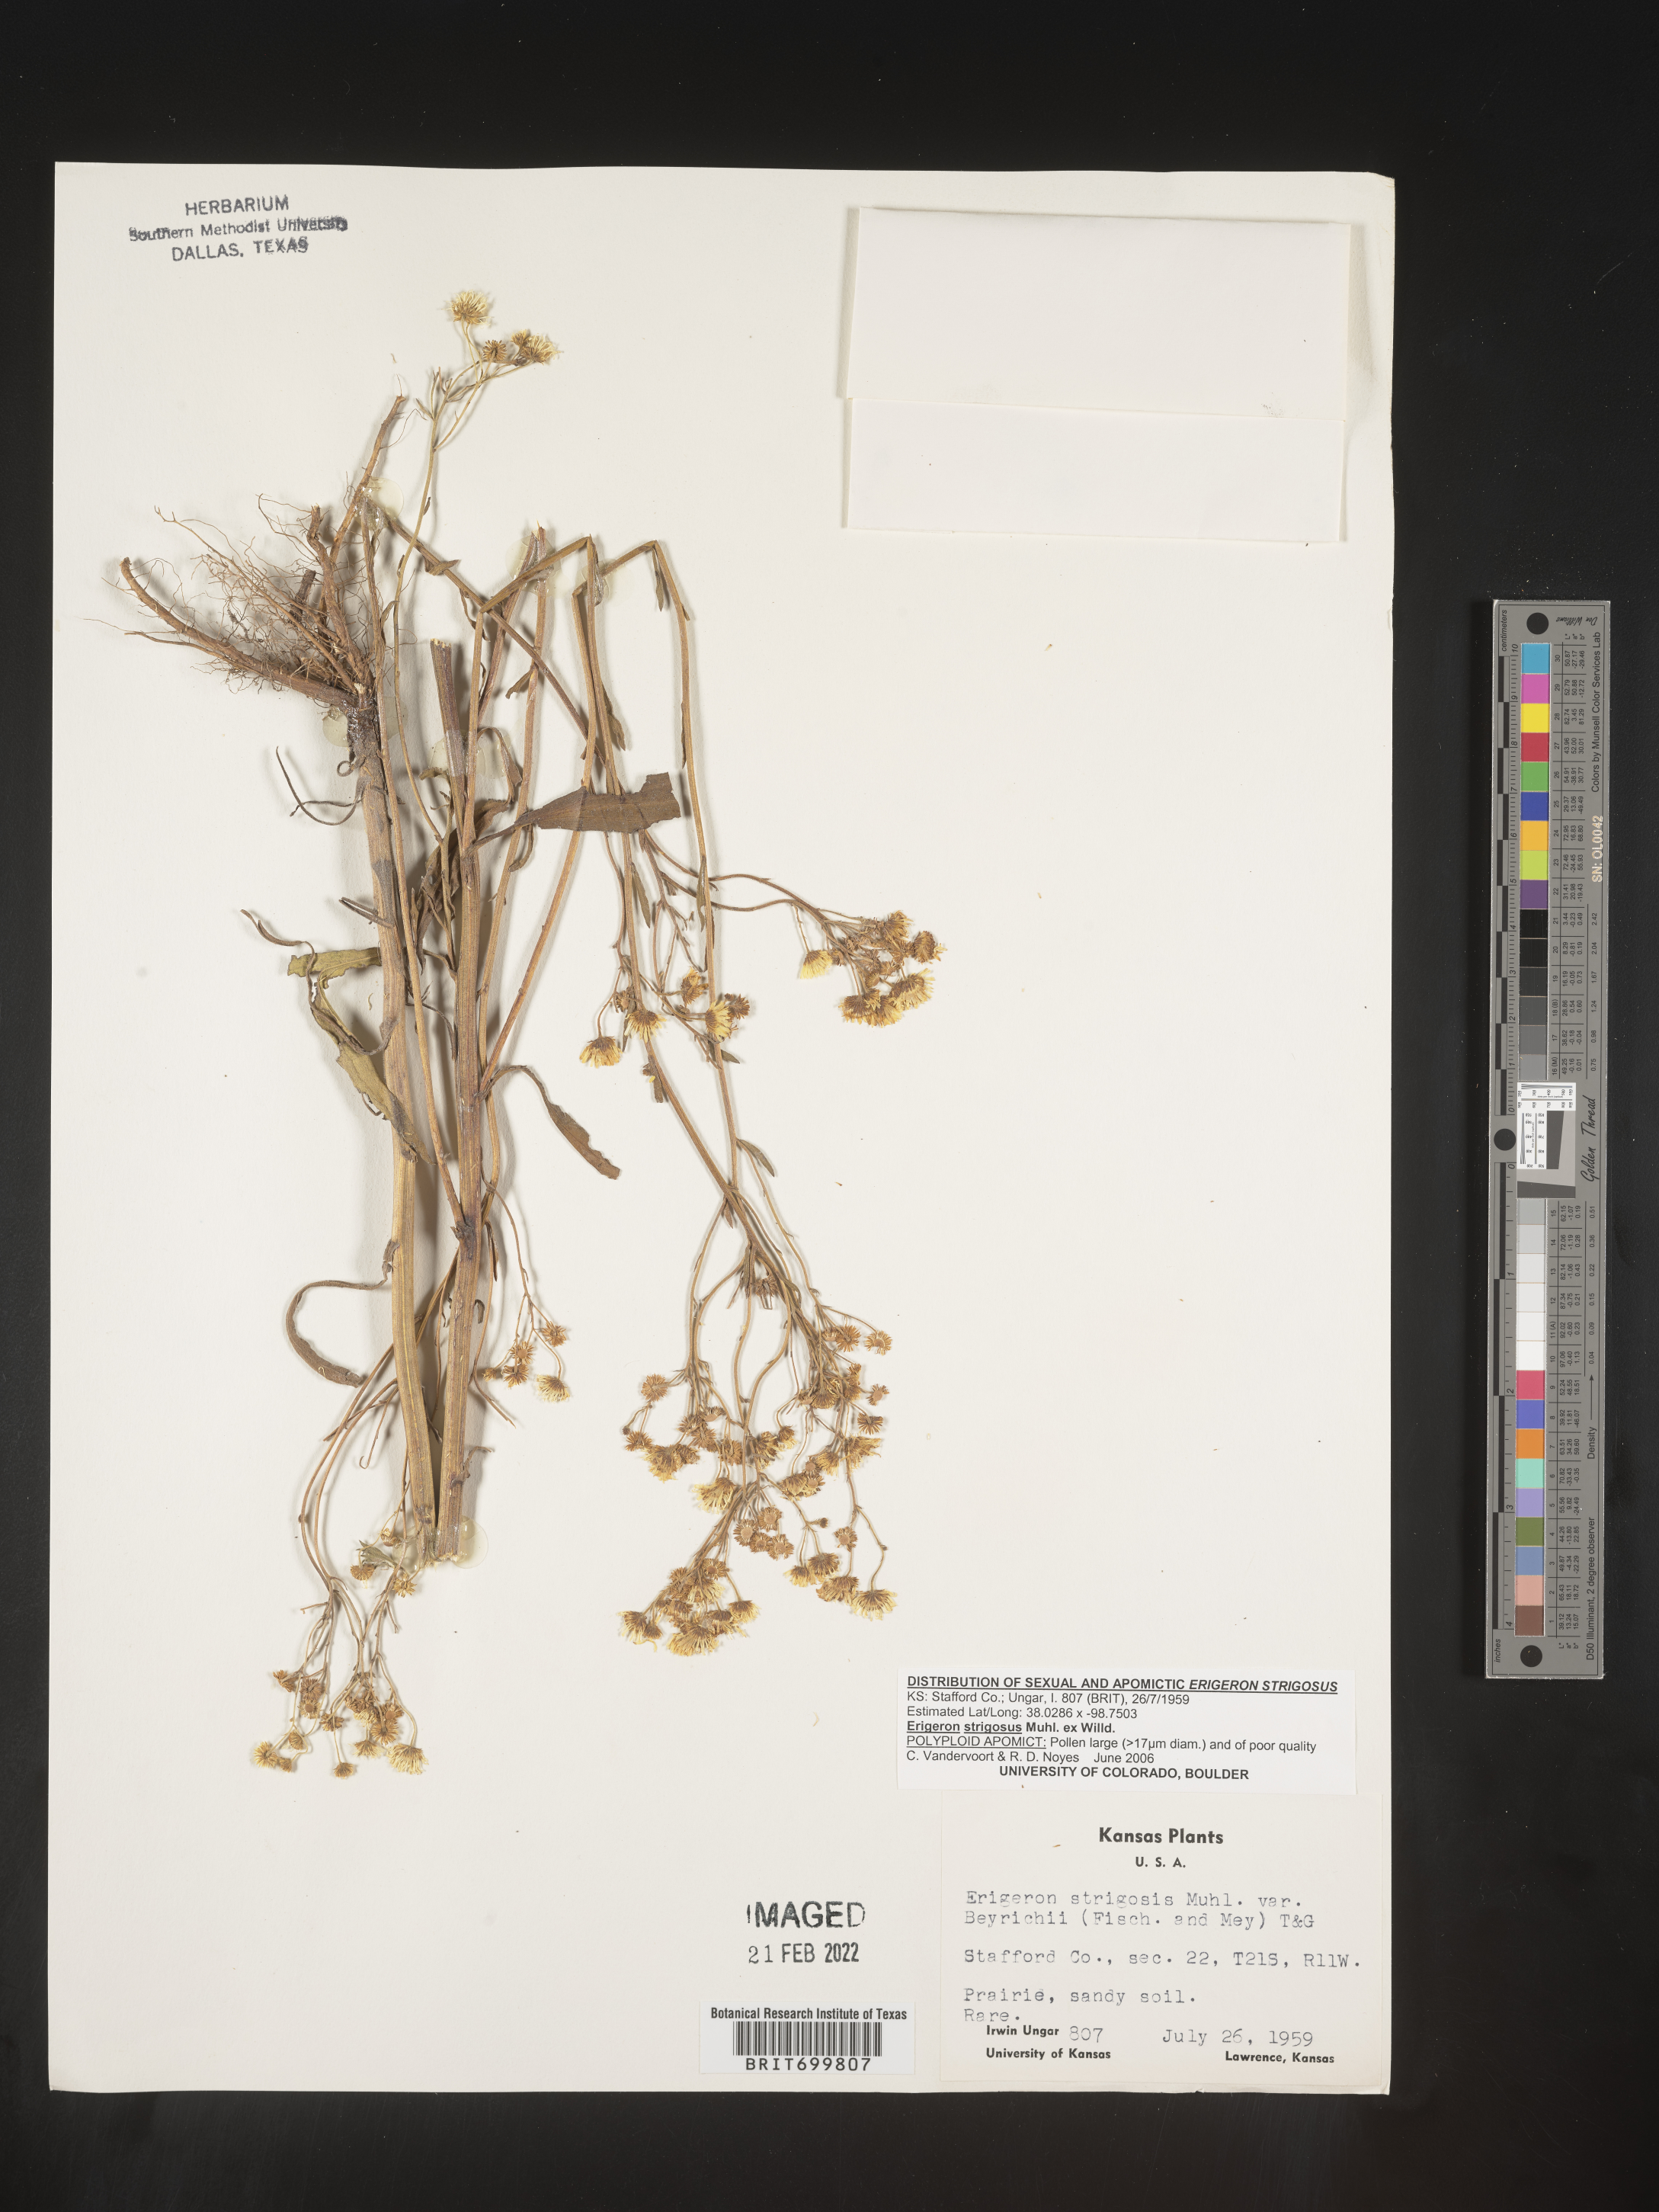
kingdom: Plantae
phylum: Tracheophyta
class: Magnoliopsida
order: Asterales
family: Asteraceae
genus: Erigeron
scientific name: Erigeron strigosus
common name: Common eastern fleabane
